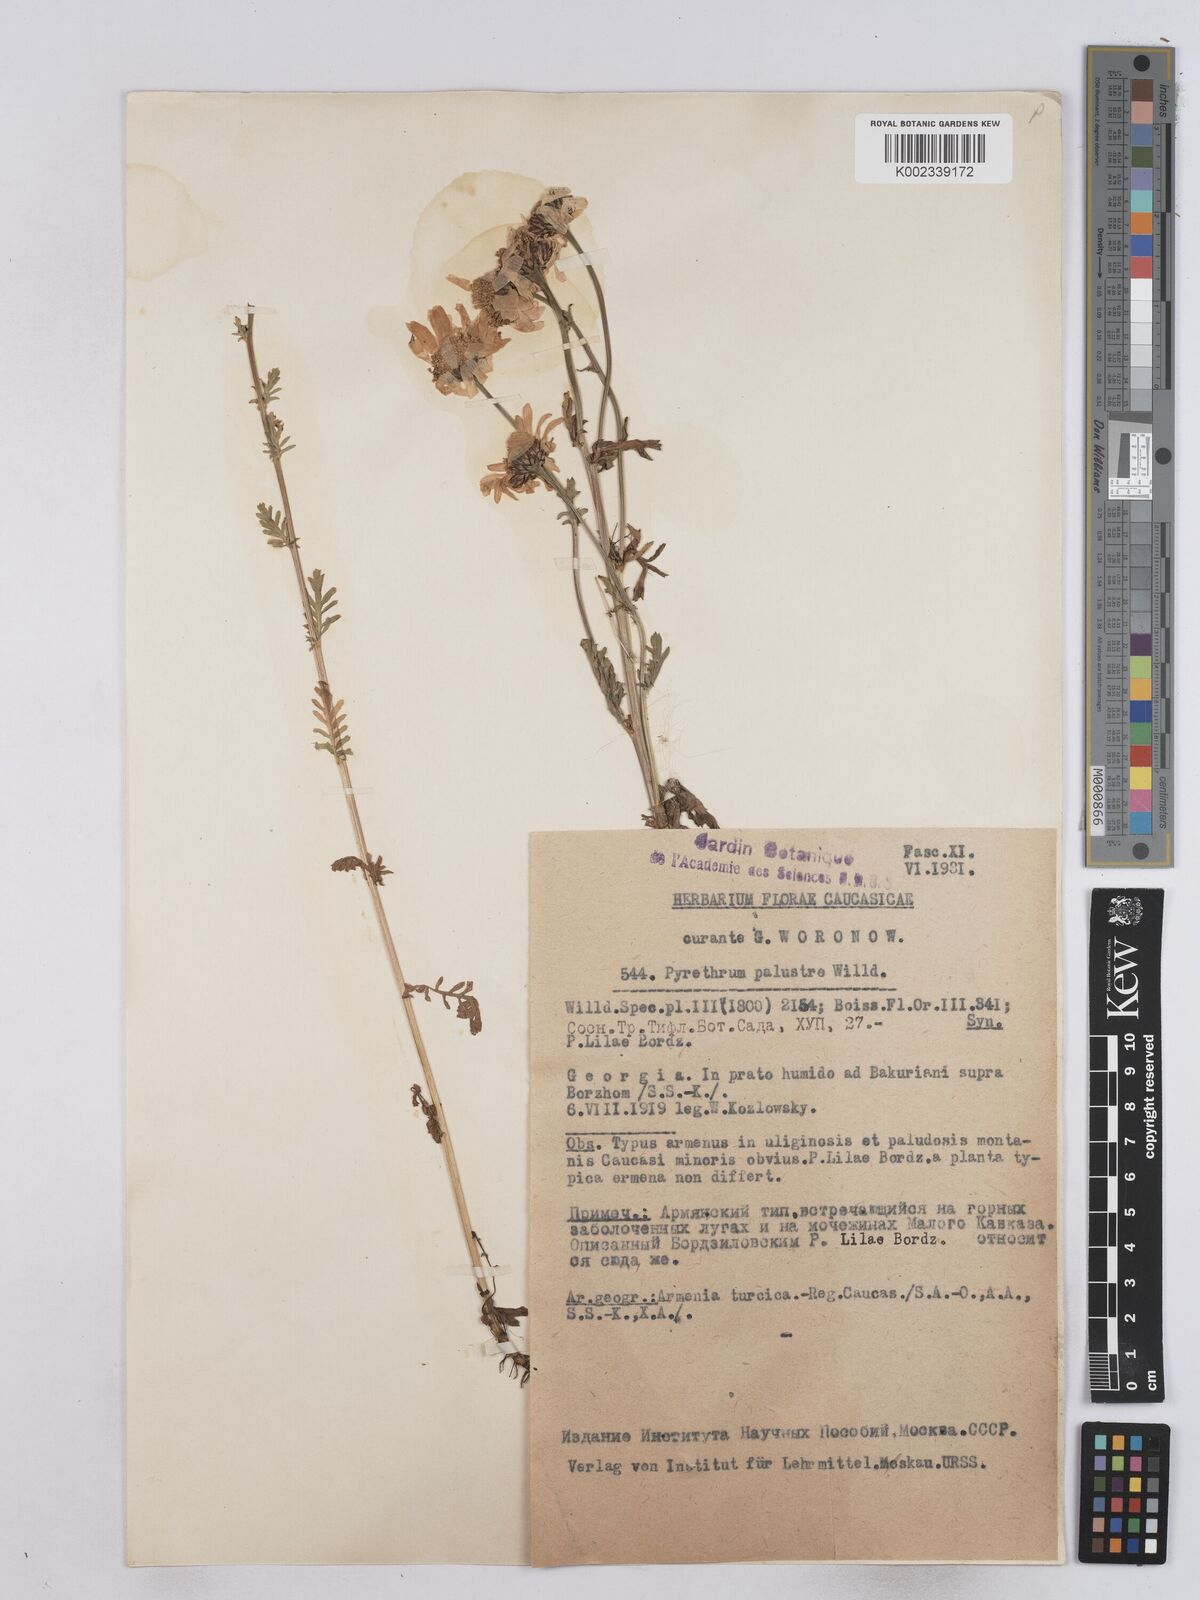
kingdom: Plantae
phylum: Tracheophyta
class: Magnoliopsida
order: Asterales
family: Asteraceae
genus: Tanacetum
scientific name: Tanacetum punctatum
